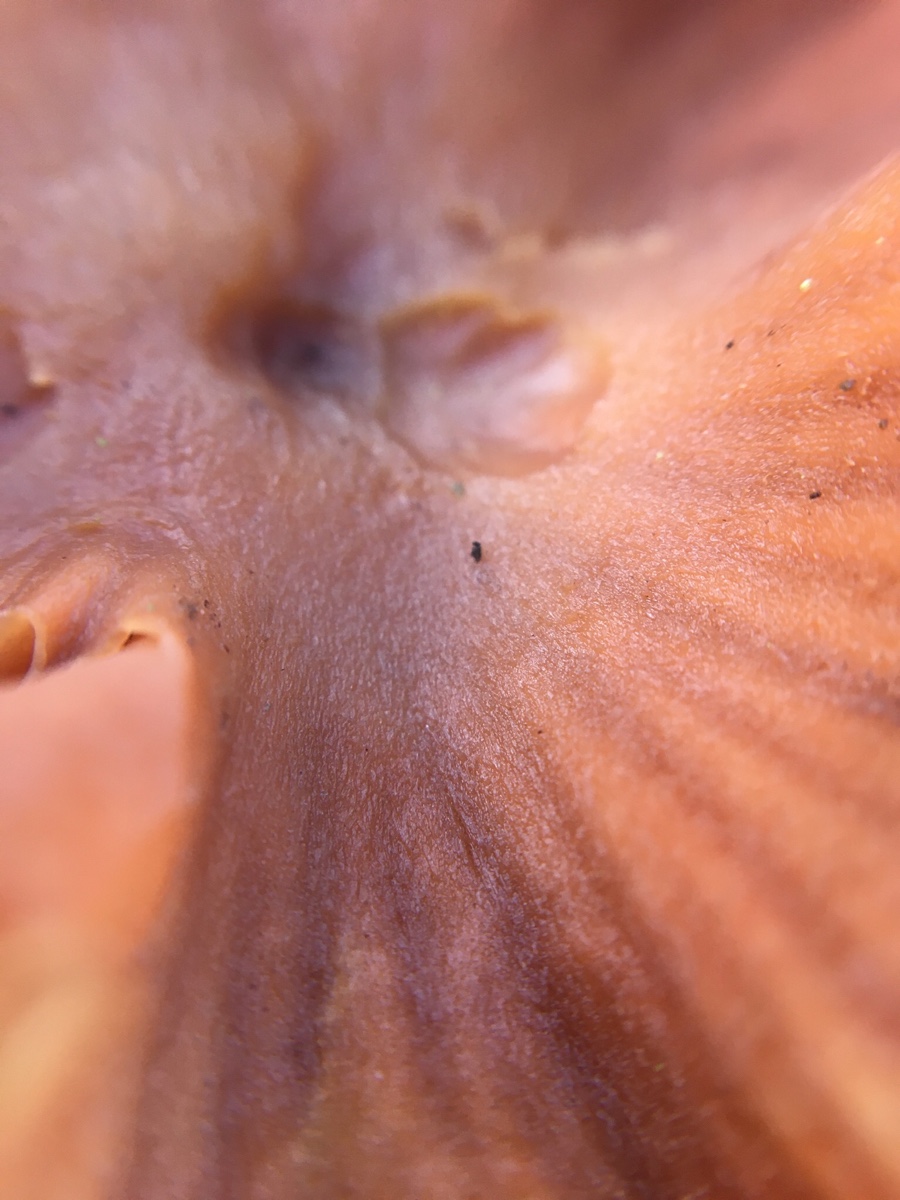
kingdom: Fungi
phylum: Basidiomycota
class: Agaricomycetes
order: Agaricales
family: Hydnangiaceae
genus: Laccaria
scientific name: Laccaria
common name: ametysthat
